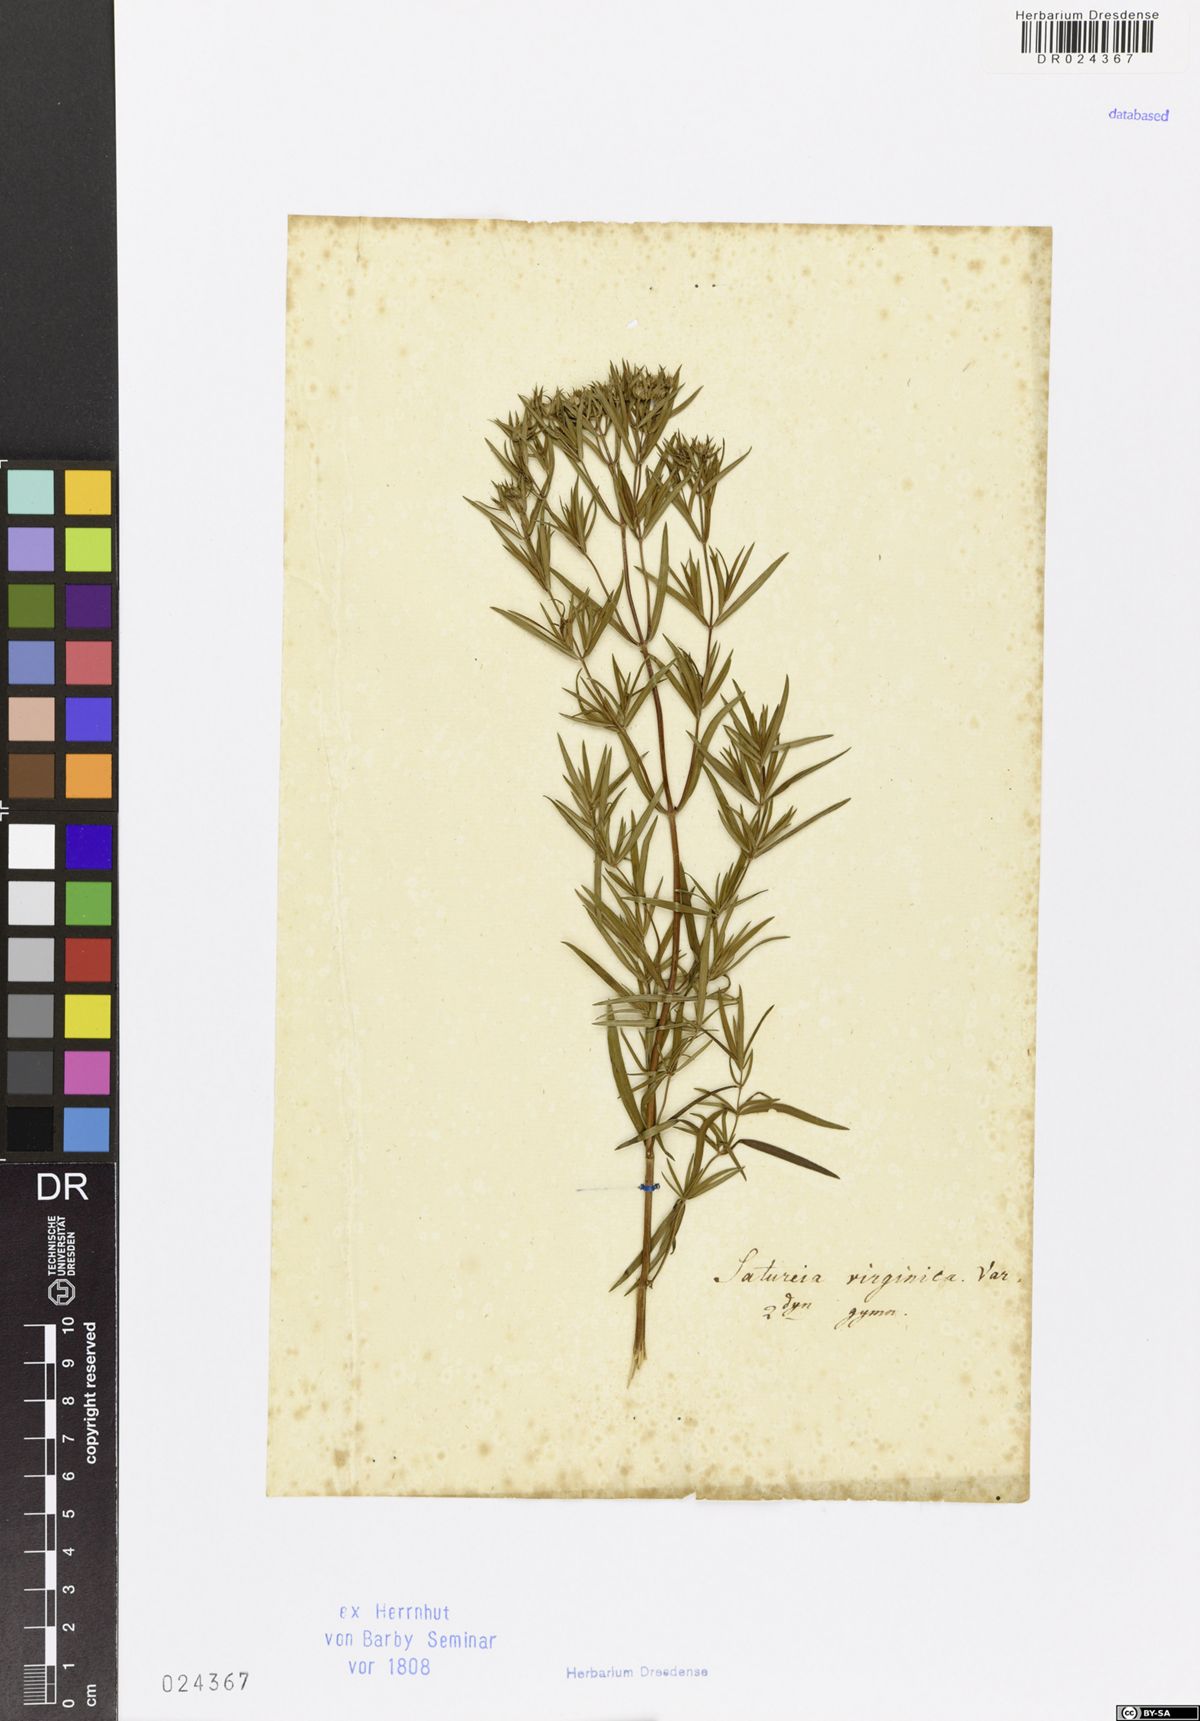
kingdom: Plantae
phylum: Tracheophyta
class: Magnoliopsida
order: Lamiales
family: Lamiaceae
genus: Pycnanthemum
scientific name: Pycnanthemum virginianum
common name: Virginia mountain-mint
